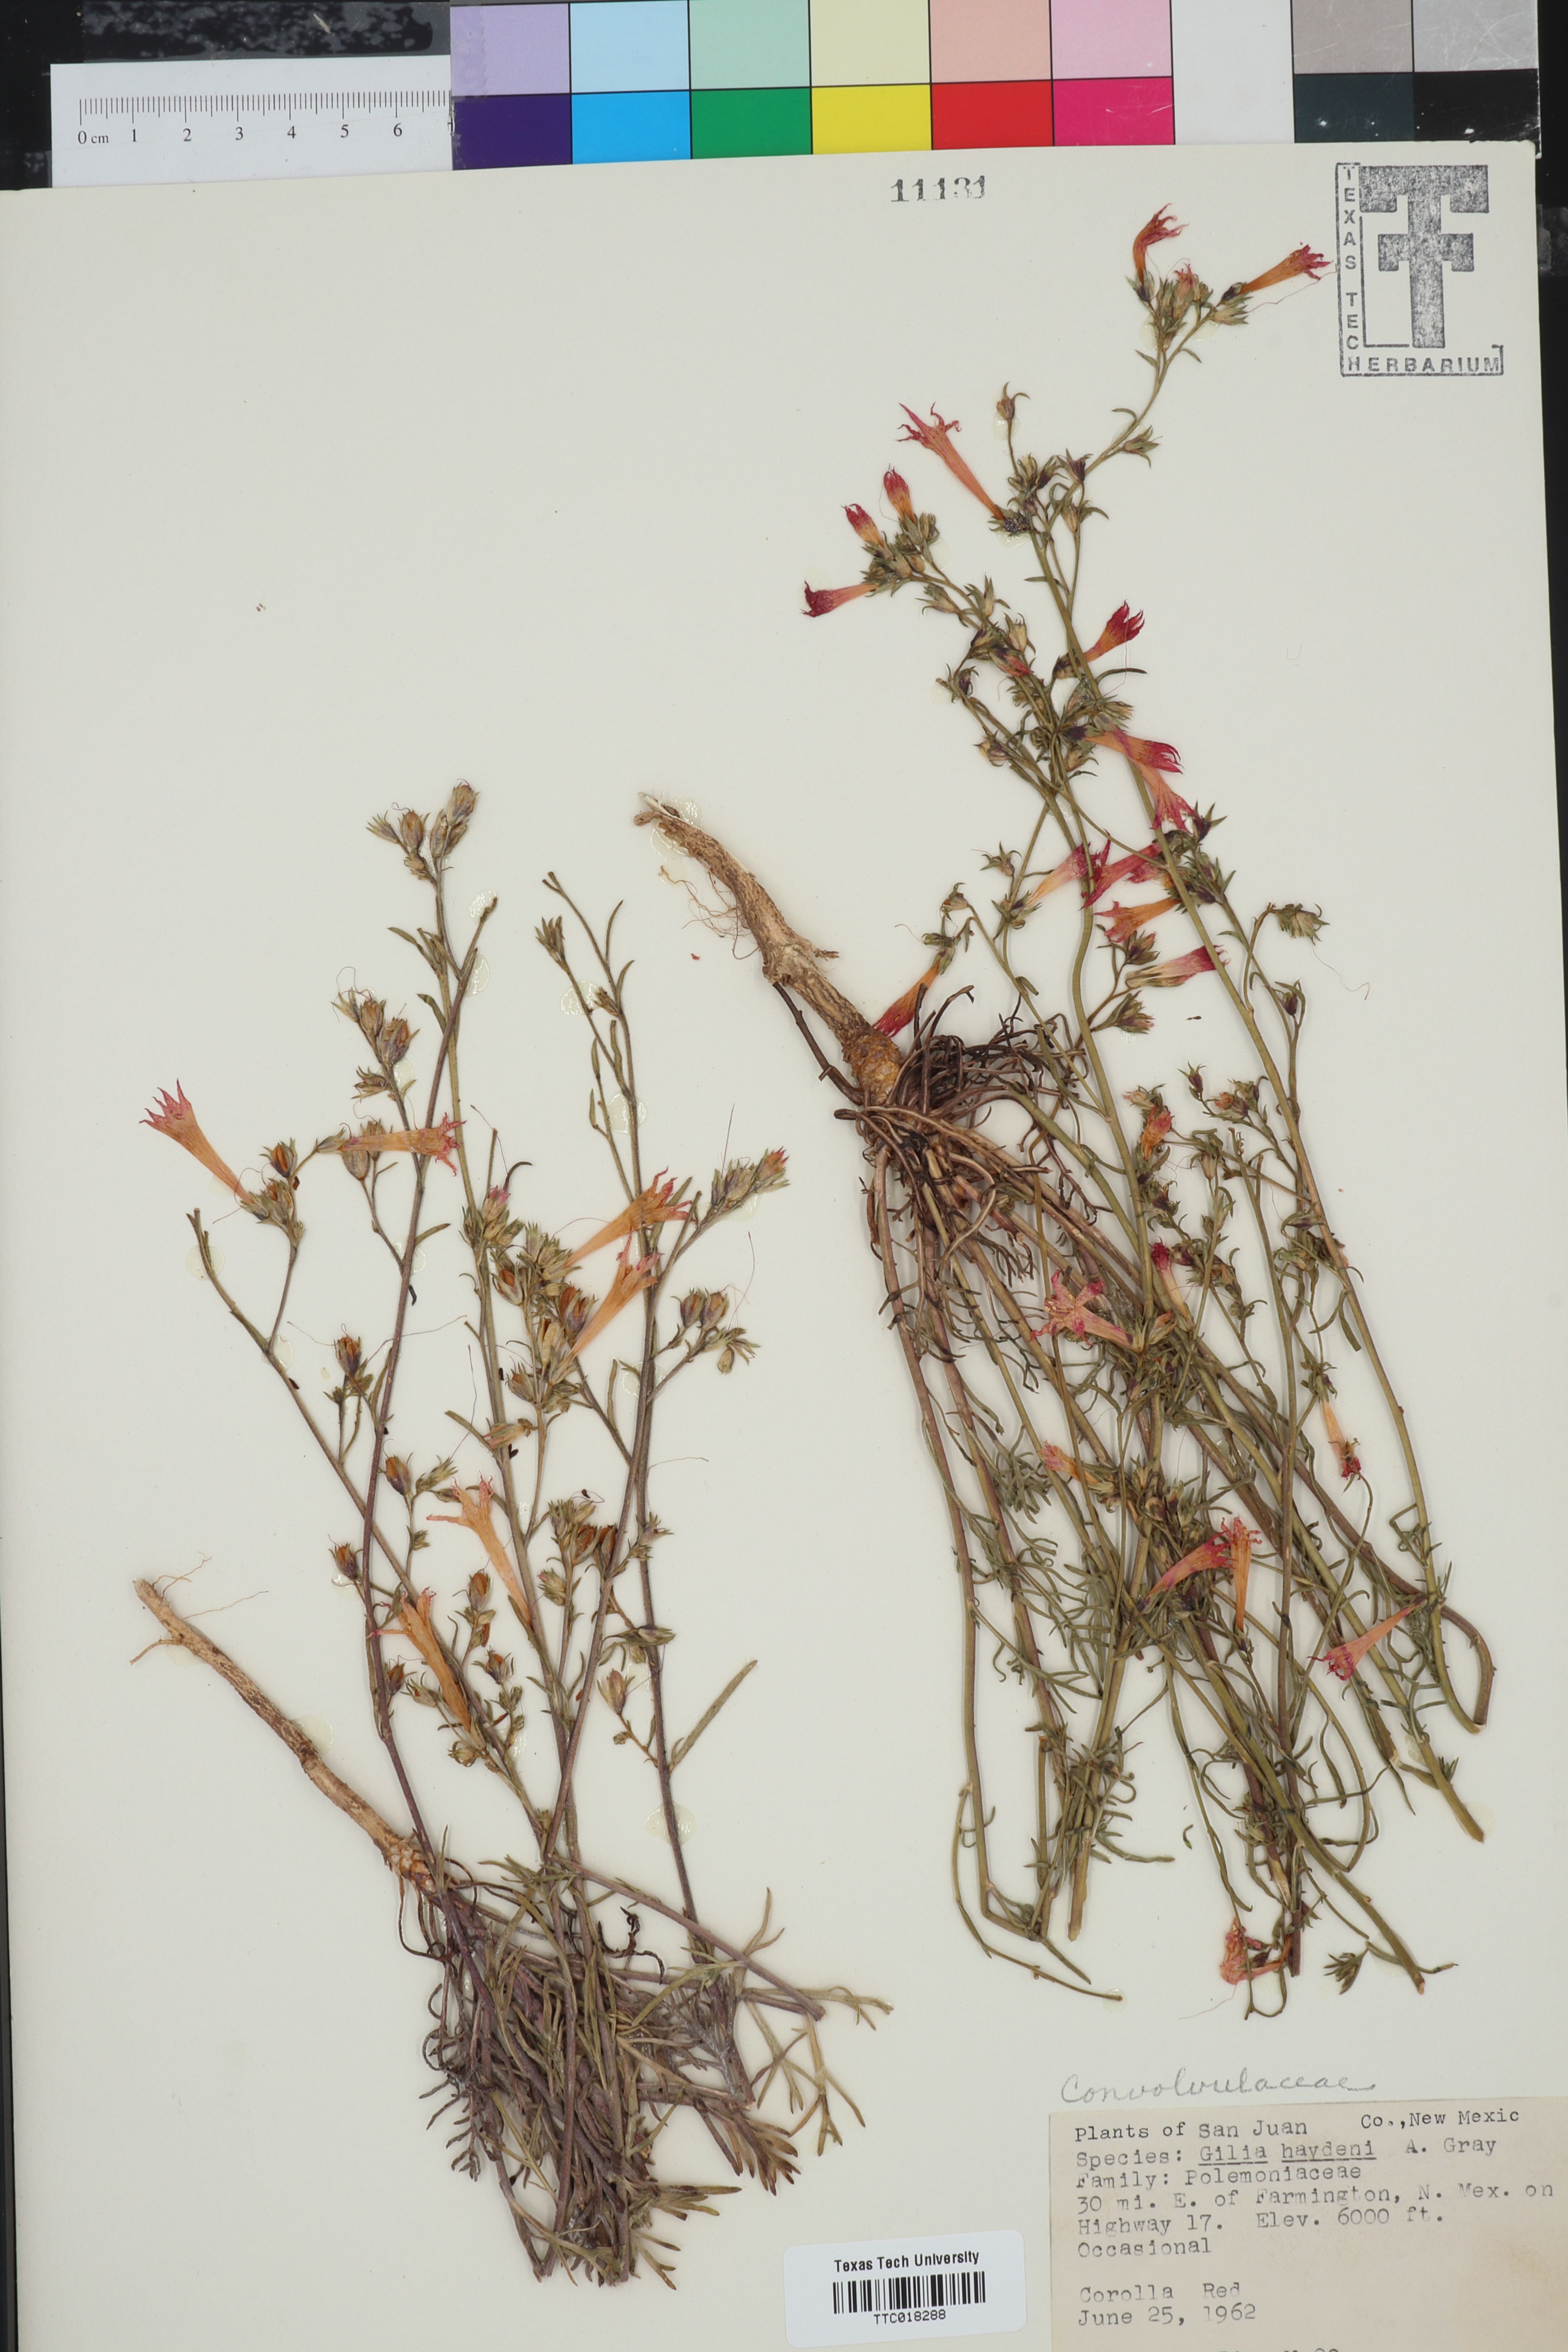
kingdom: Plantae
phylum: Tracheophyta
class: Magnoliopsida
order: Ericales
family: Polemoniaceae
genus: Aliciella
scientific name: Aliciella haydenii
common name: San juan gilia
